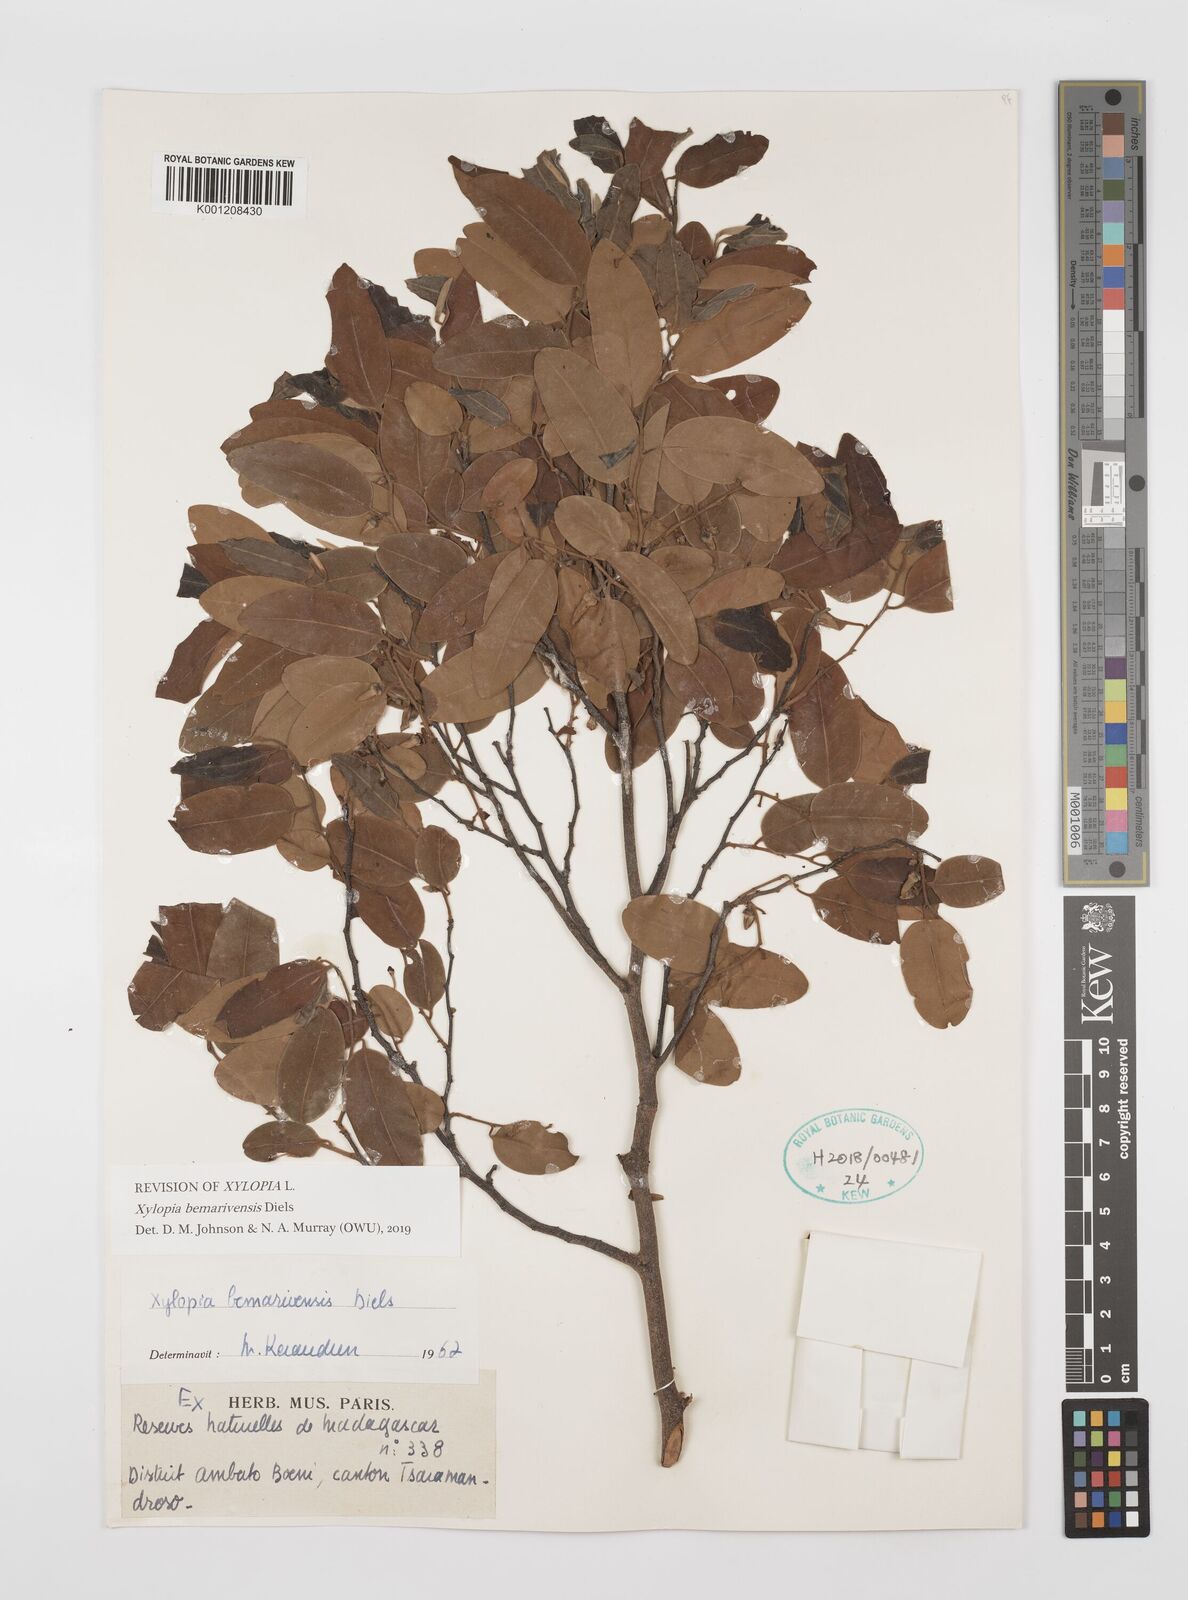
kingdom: Plantae
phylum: Tracheophyta
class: Magnoliopsida
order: Magnoliales
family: Annonaceae
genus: Xylopia
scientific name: Xylopia bemarivensis
